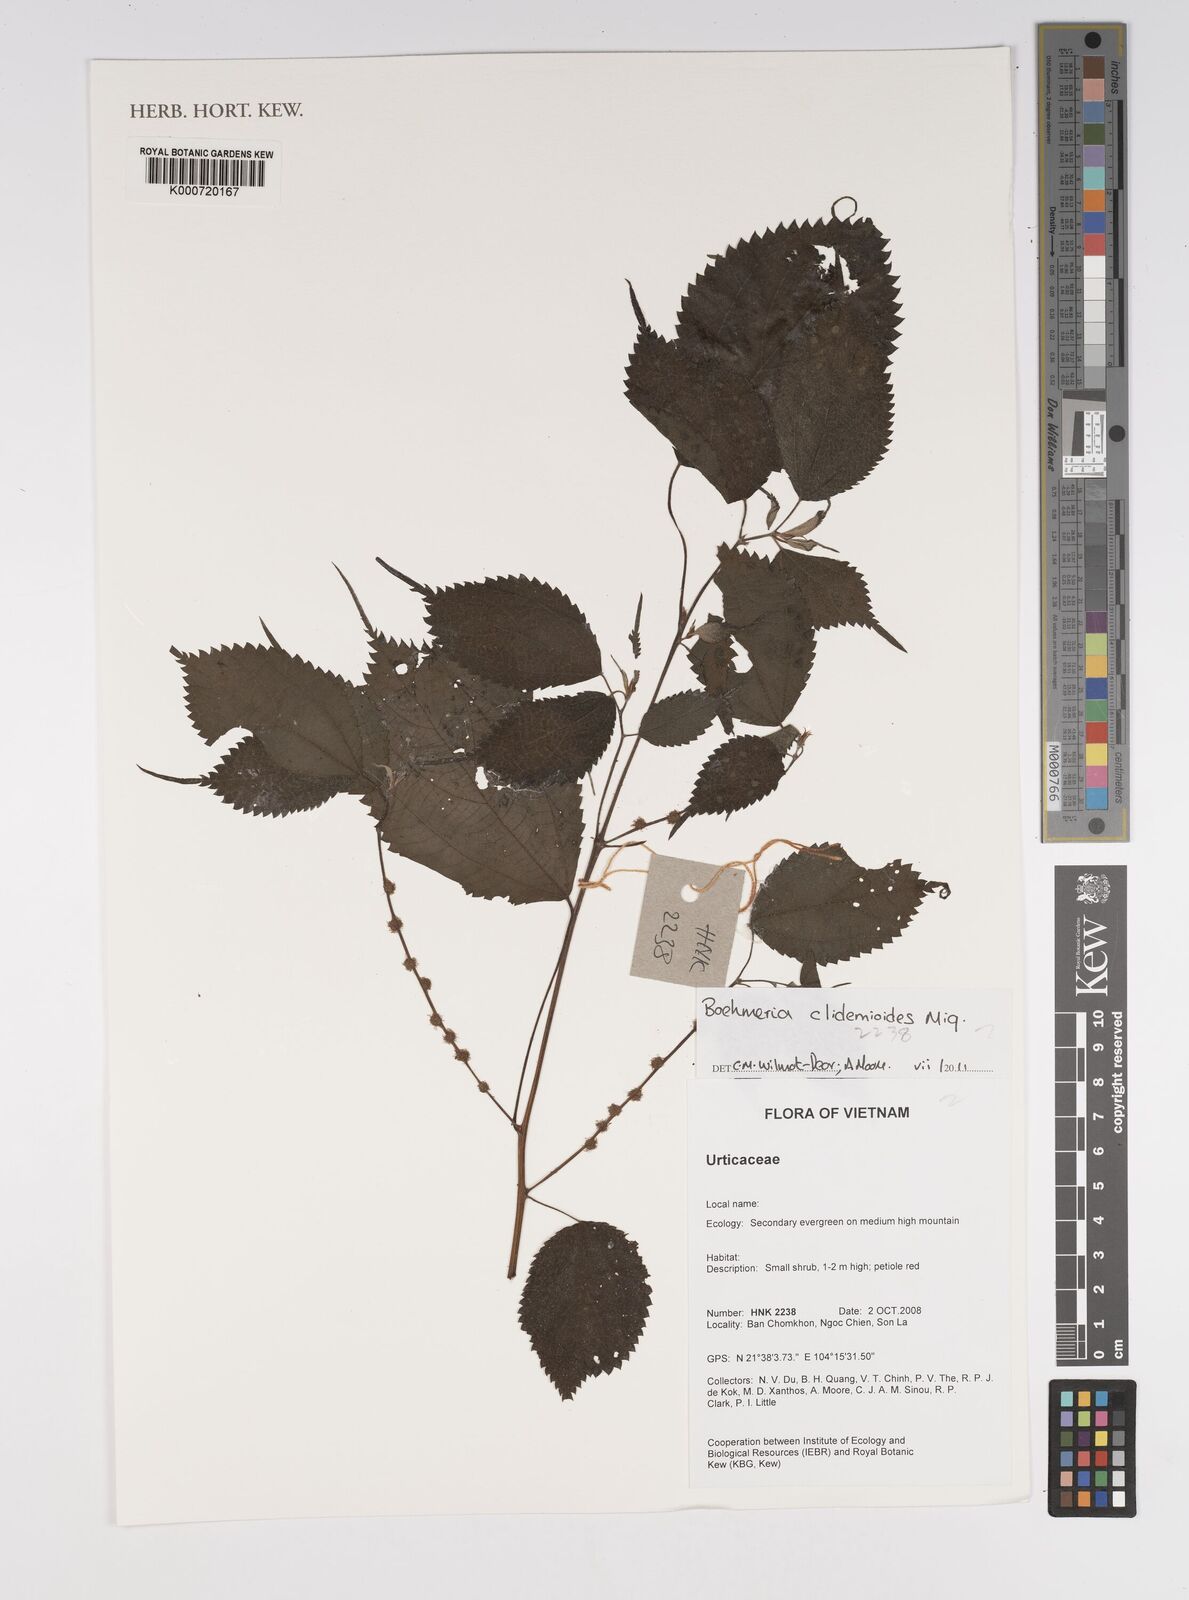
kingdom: Plantae
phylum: Tracheophyta
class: Magnoliopsida
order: Rosales
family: Urticaceae
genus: Boehmeria
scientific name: Boehmeria clidemioides
